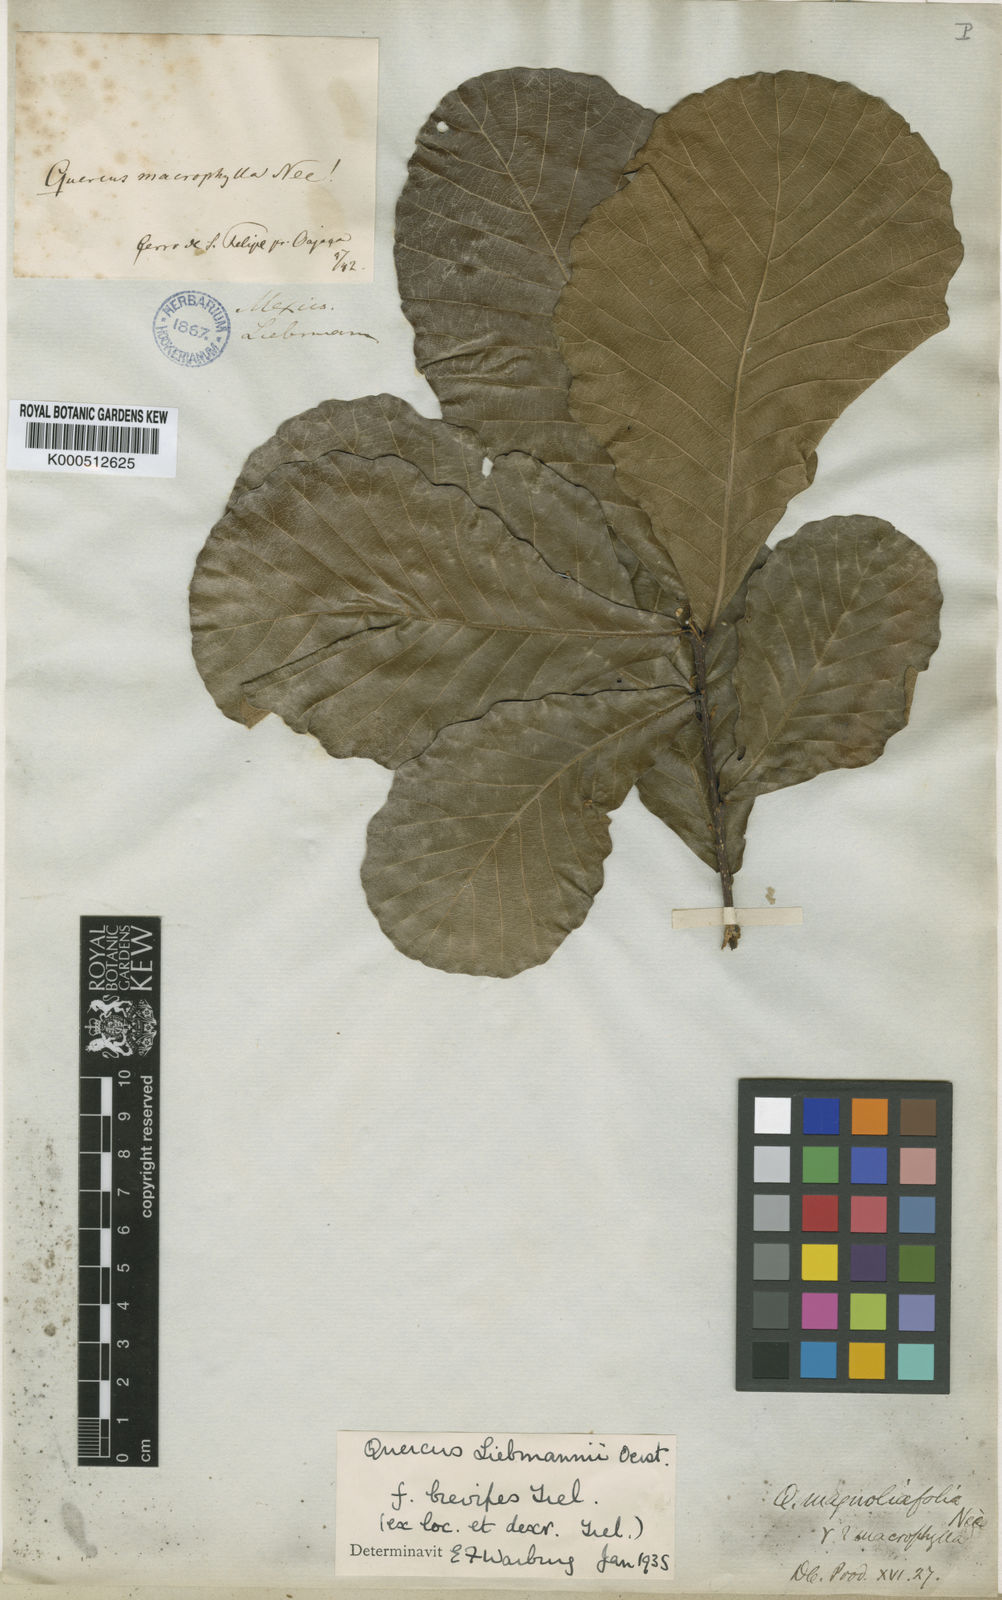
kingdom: Plantae
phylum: Tracheophyta
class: Magnoliopsida
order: Fagales
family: Fagaceae
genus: Quercus
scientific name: Quercus liebmannii
